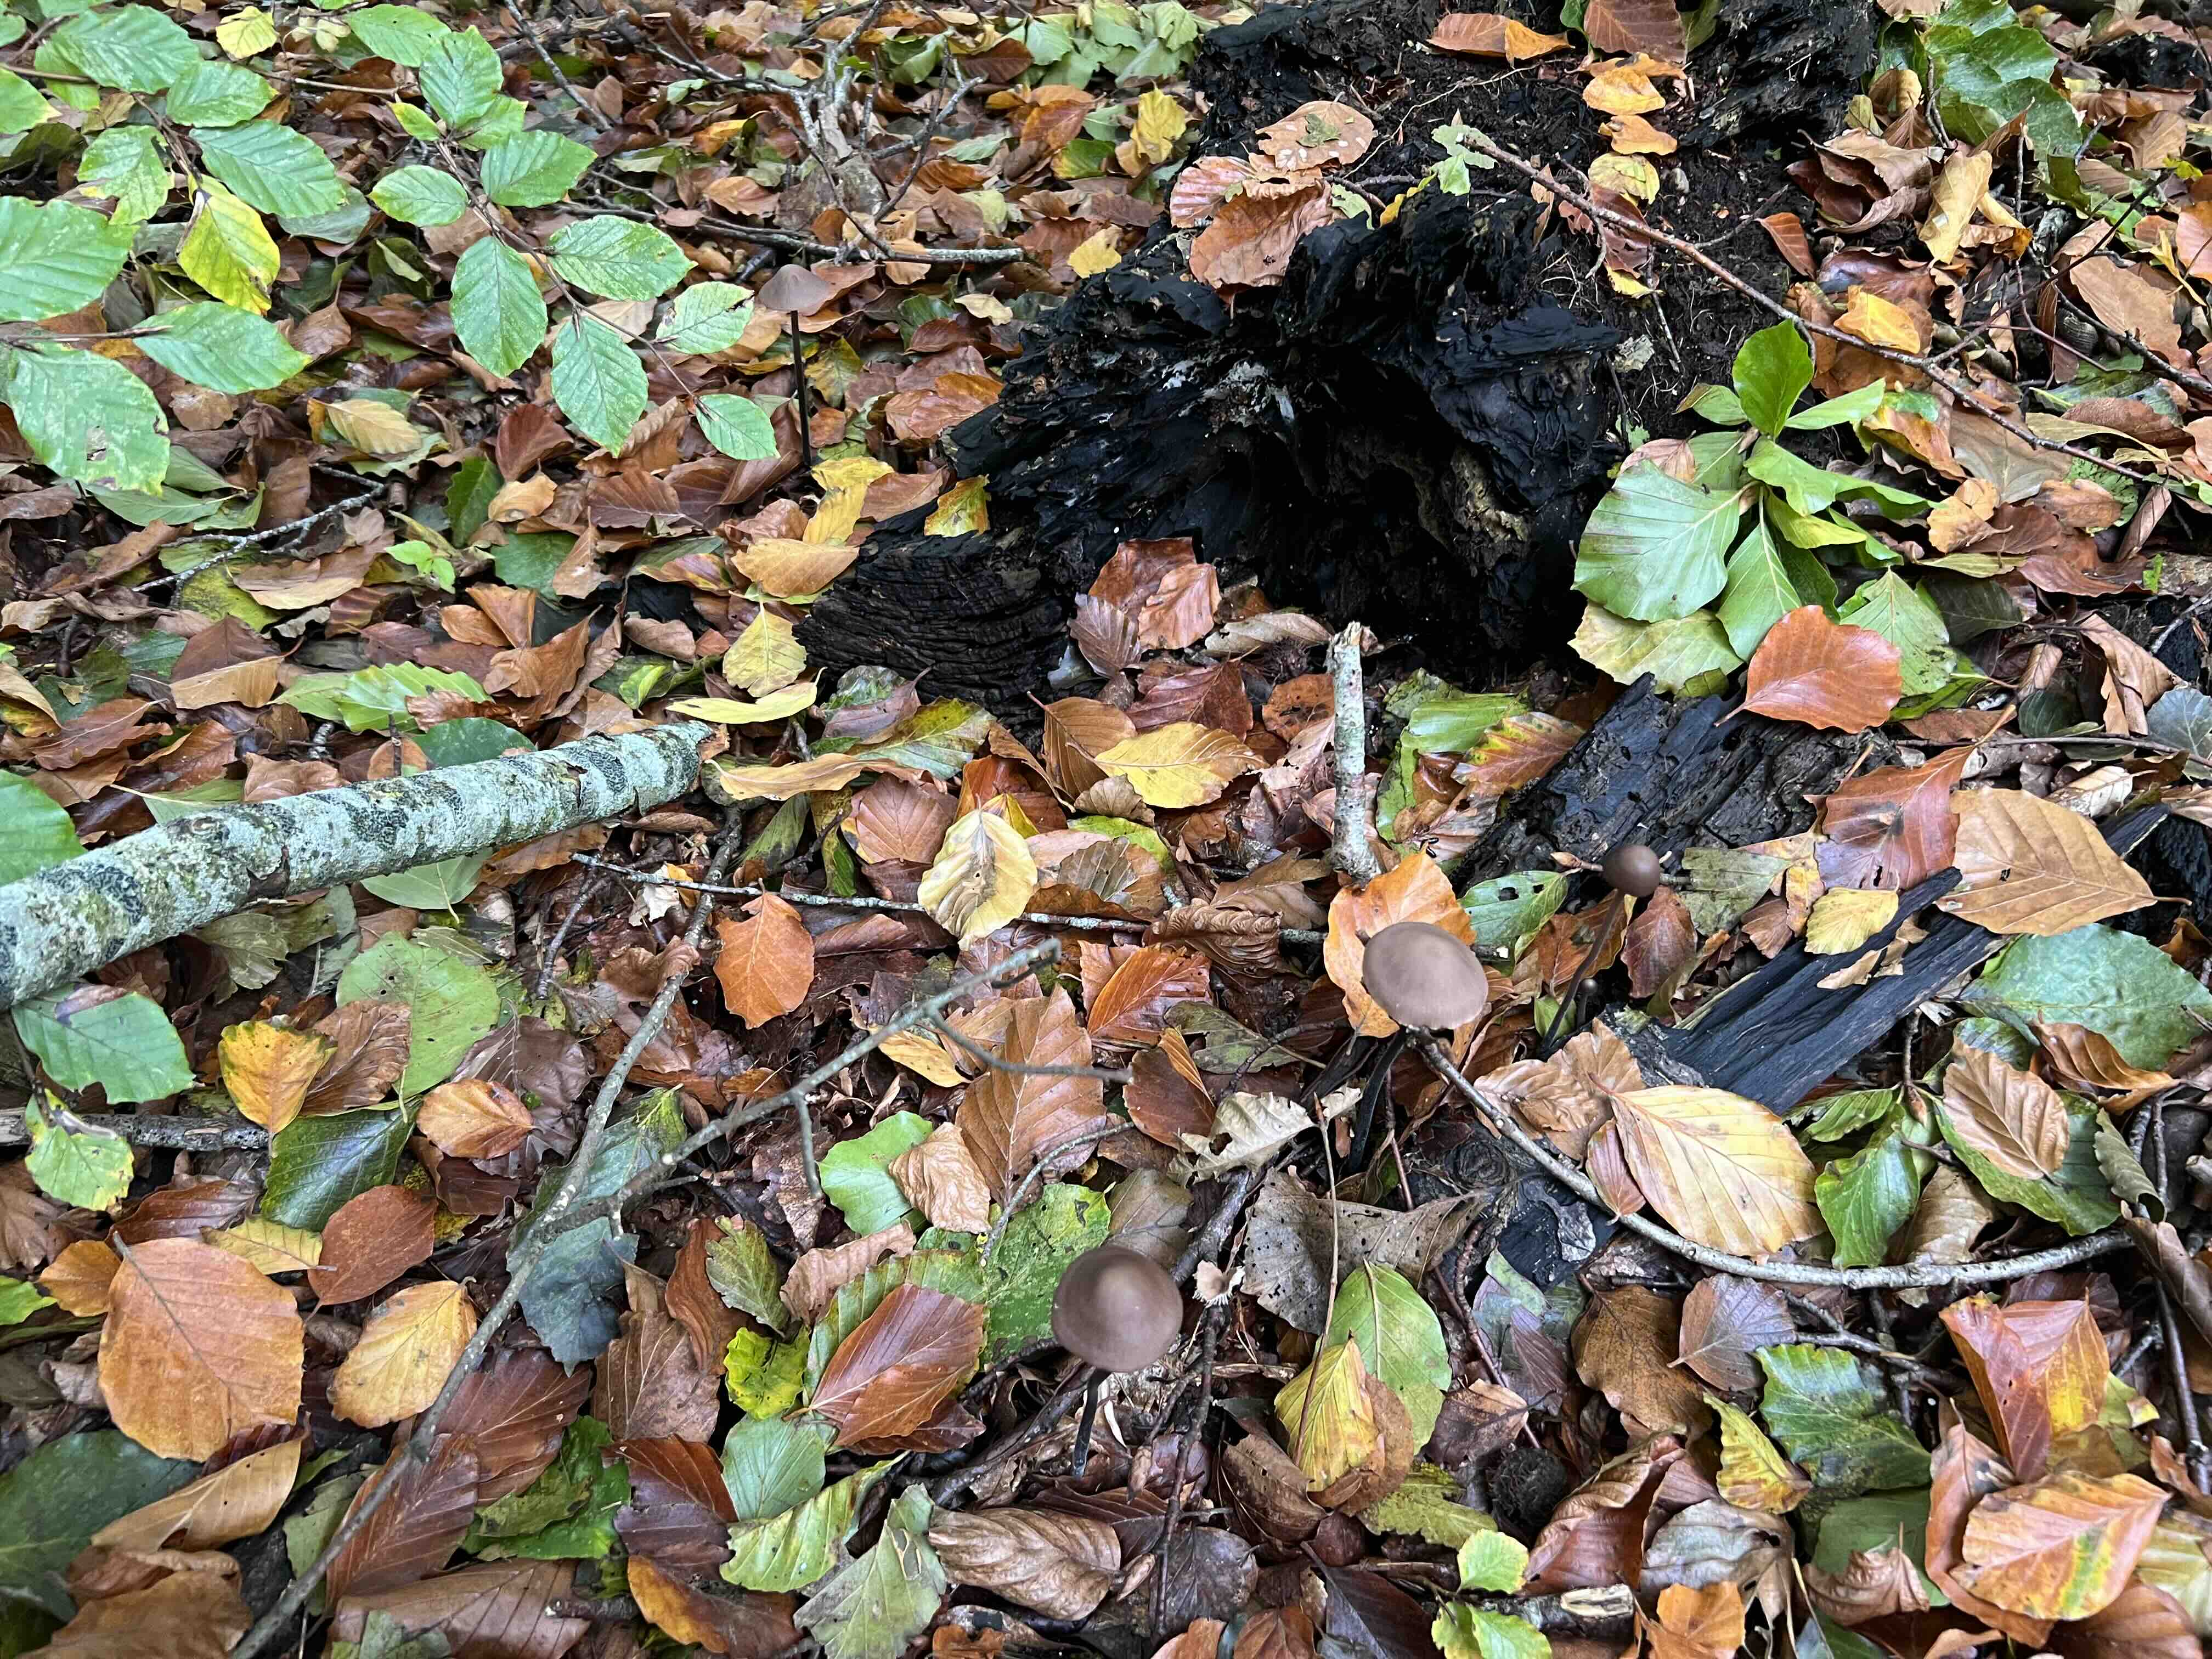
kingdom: Fungi
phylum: Basidiomycota
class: Agaricomycetes
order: Agaricales
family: Omphalotaceae
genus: Mycetinis
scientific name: Mycetinis alliaceus
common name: stor løghat
